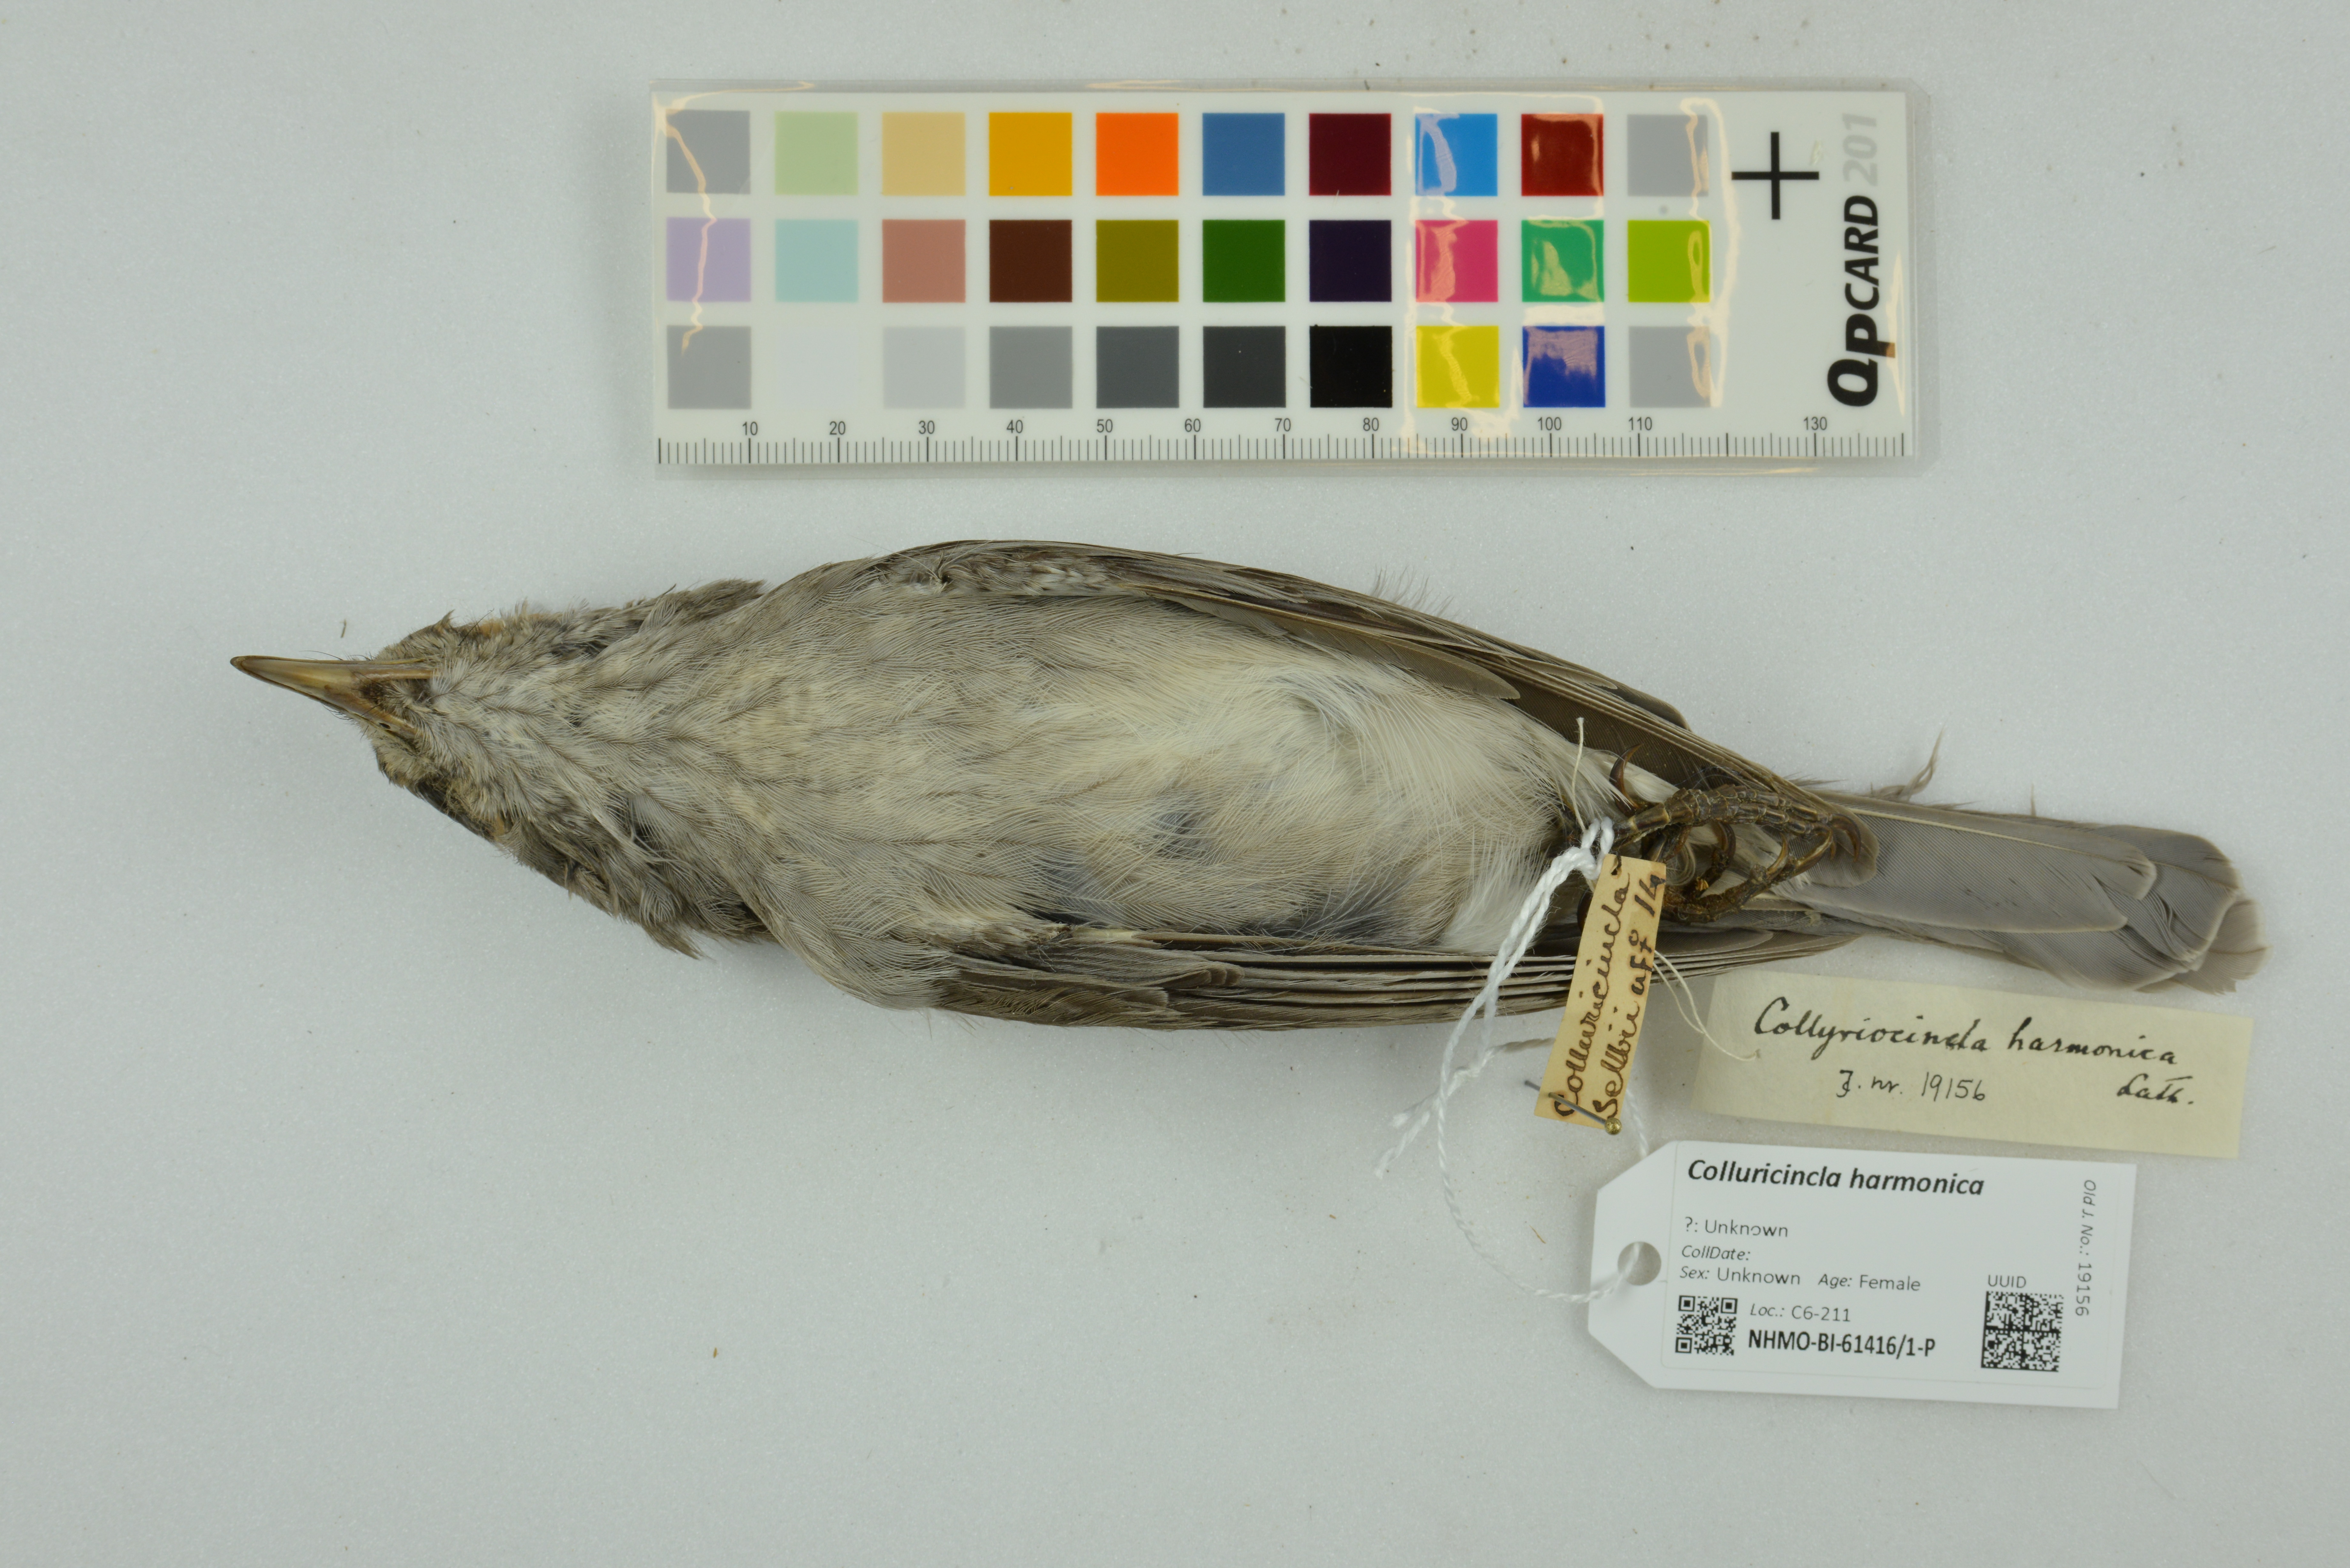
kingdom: Animalia
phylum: Chordata
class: Aves
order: Passeriformes
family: Pachycephalidae
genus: Colluricincla
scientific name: Colluricincla harmonica
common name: Grey shrikethrush
